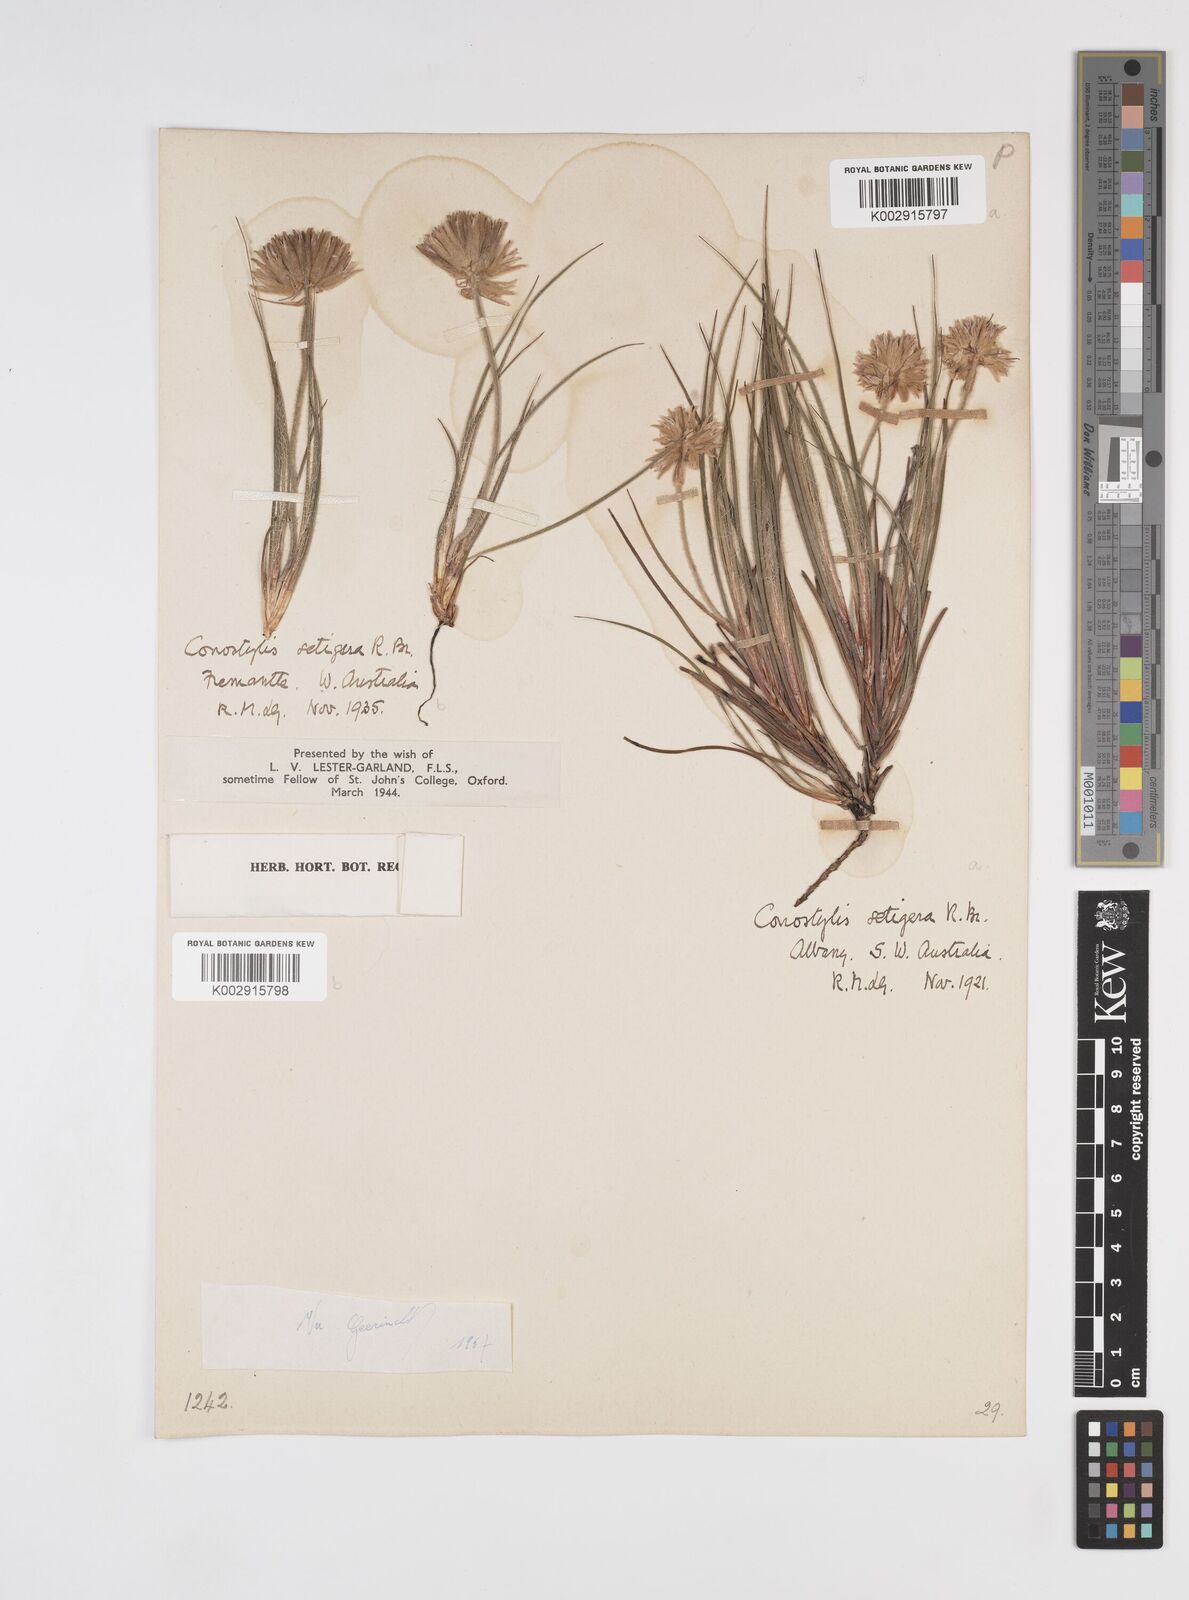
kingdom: Plantae
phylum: Tracheophyta
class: Liliopsida
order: Commelinales
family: Haemodoraceae
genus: Conostylis
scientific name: Conostylis setigera
